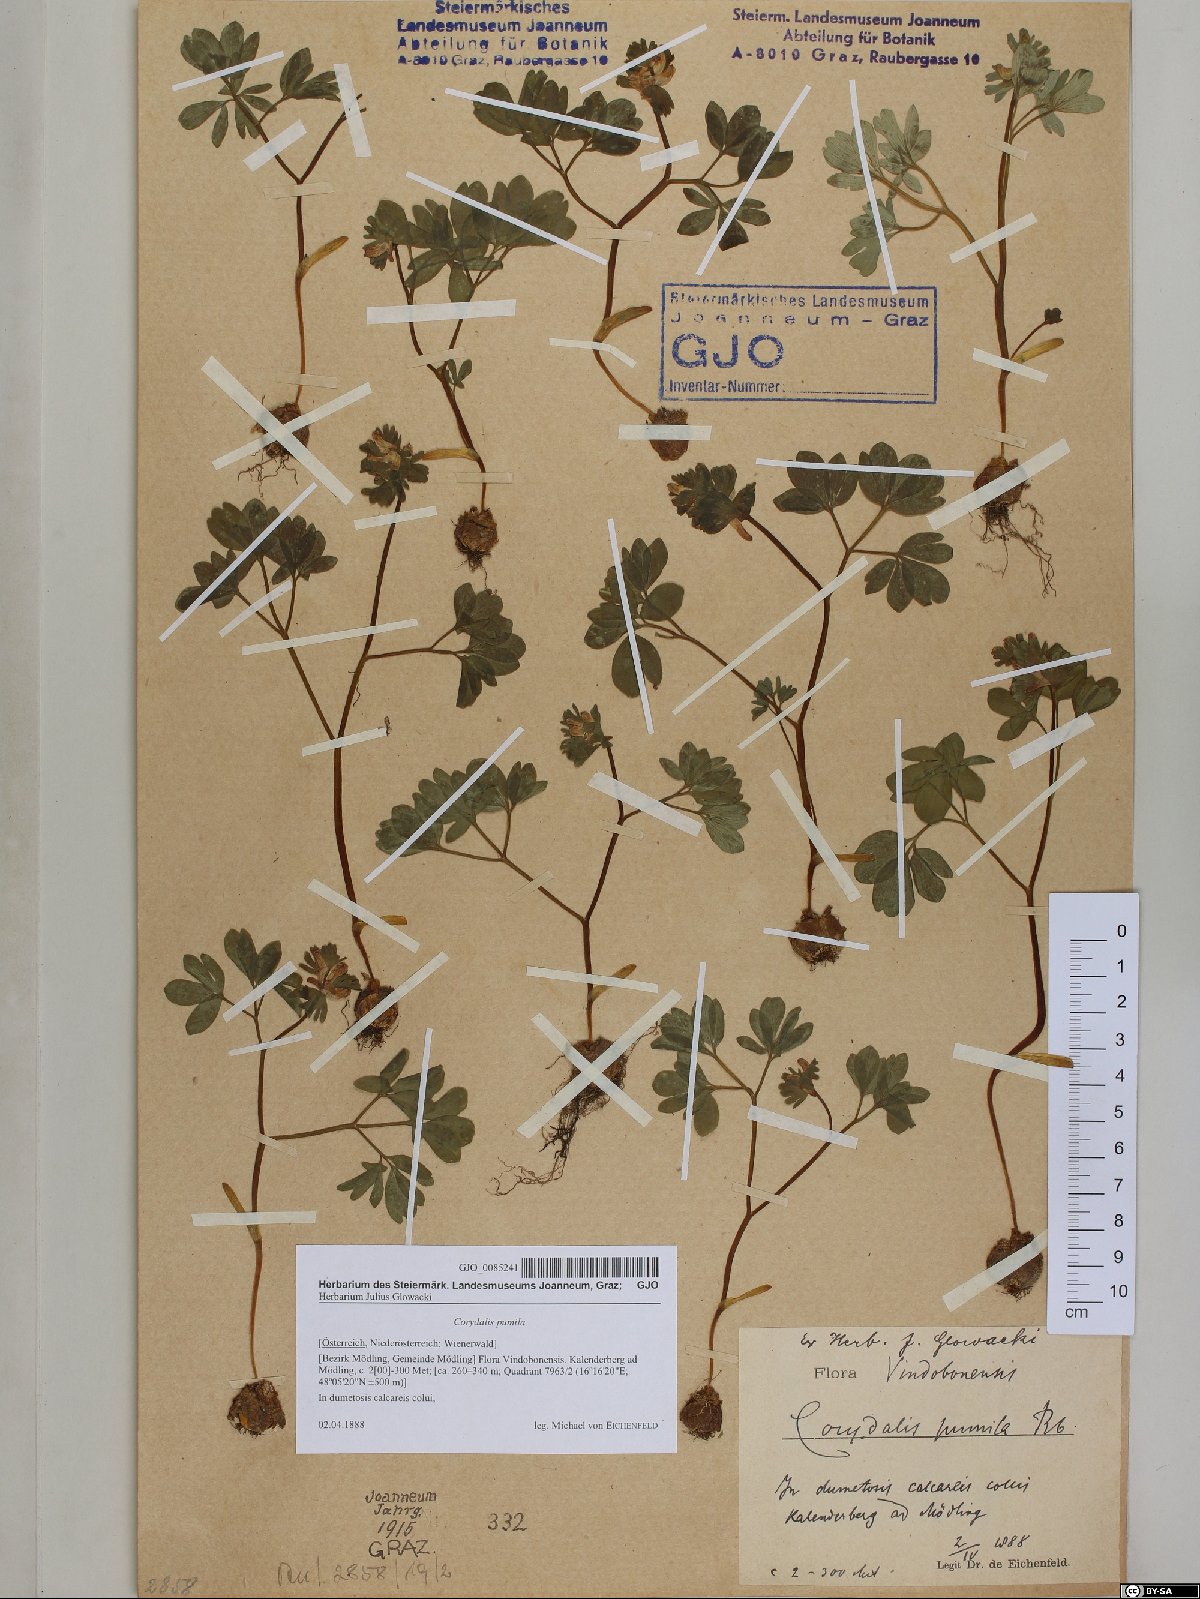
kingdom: Plantae
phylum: Tracheophyta
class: Magnoliopsida
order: Ranunculales
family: Papaveraceae
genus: Corydalis
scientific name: Corydalis pumila
